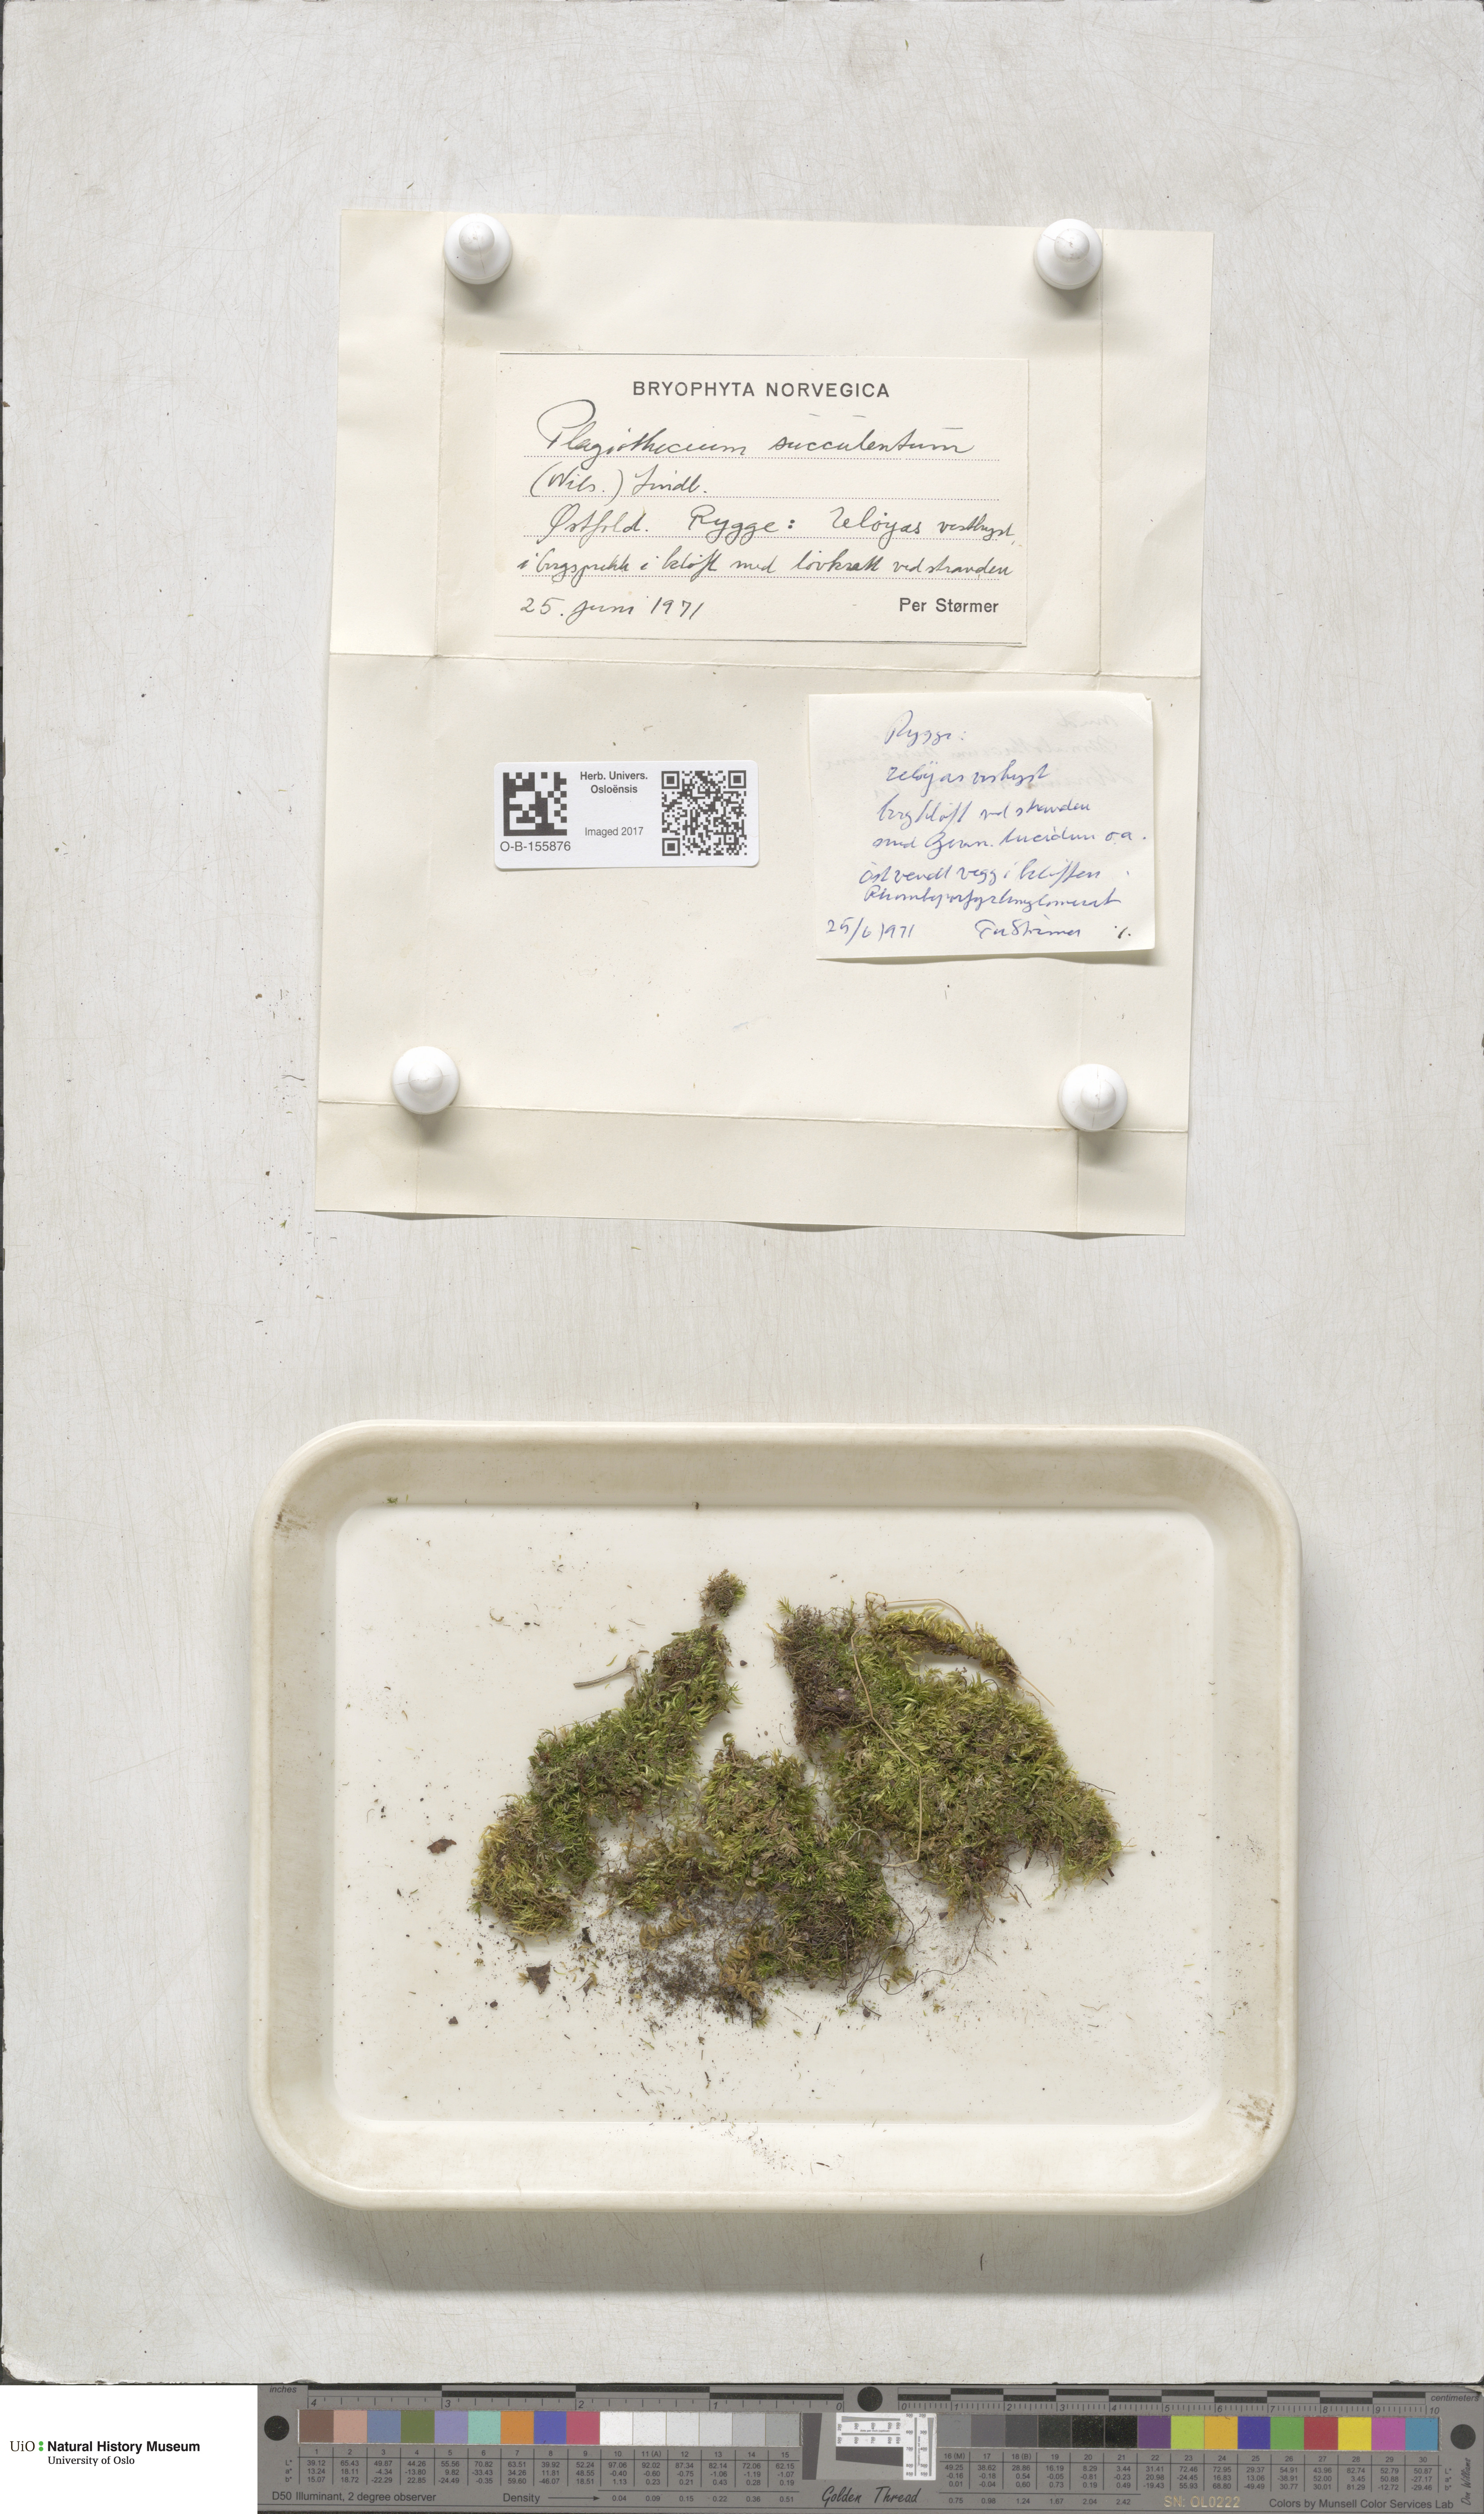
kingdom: Plantae
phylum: Bryophyta
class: Bryopsida
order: Hypnales
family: Plagiotheciaceae
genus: Plagiothecium
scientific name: Plagiothecium succulentum
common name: Juicy silk-moss
